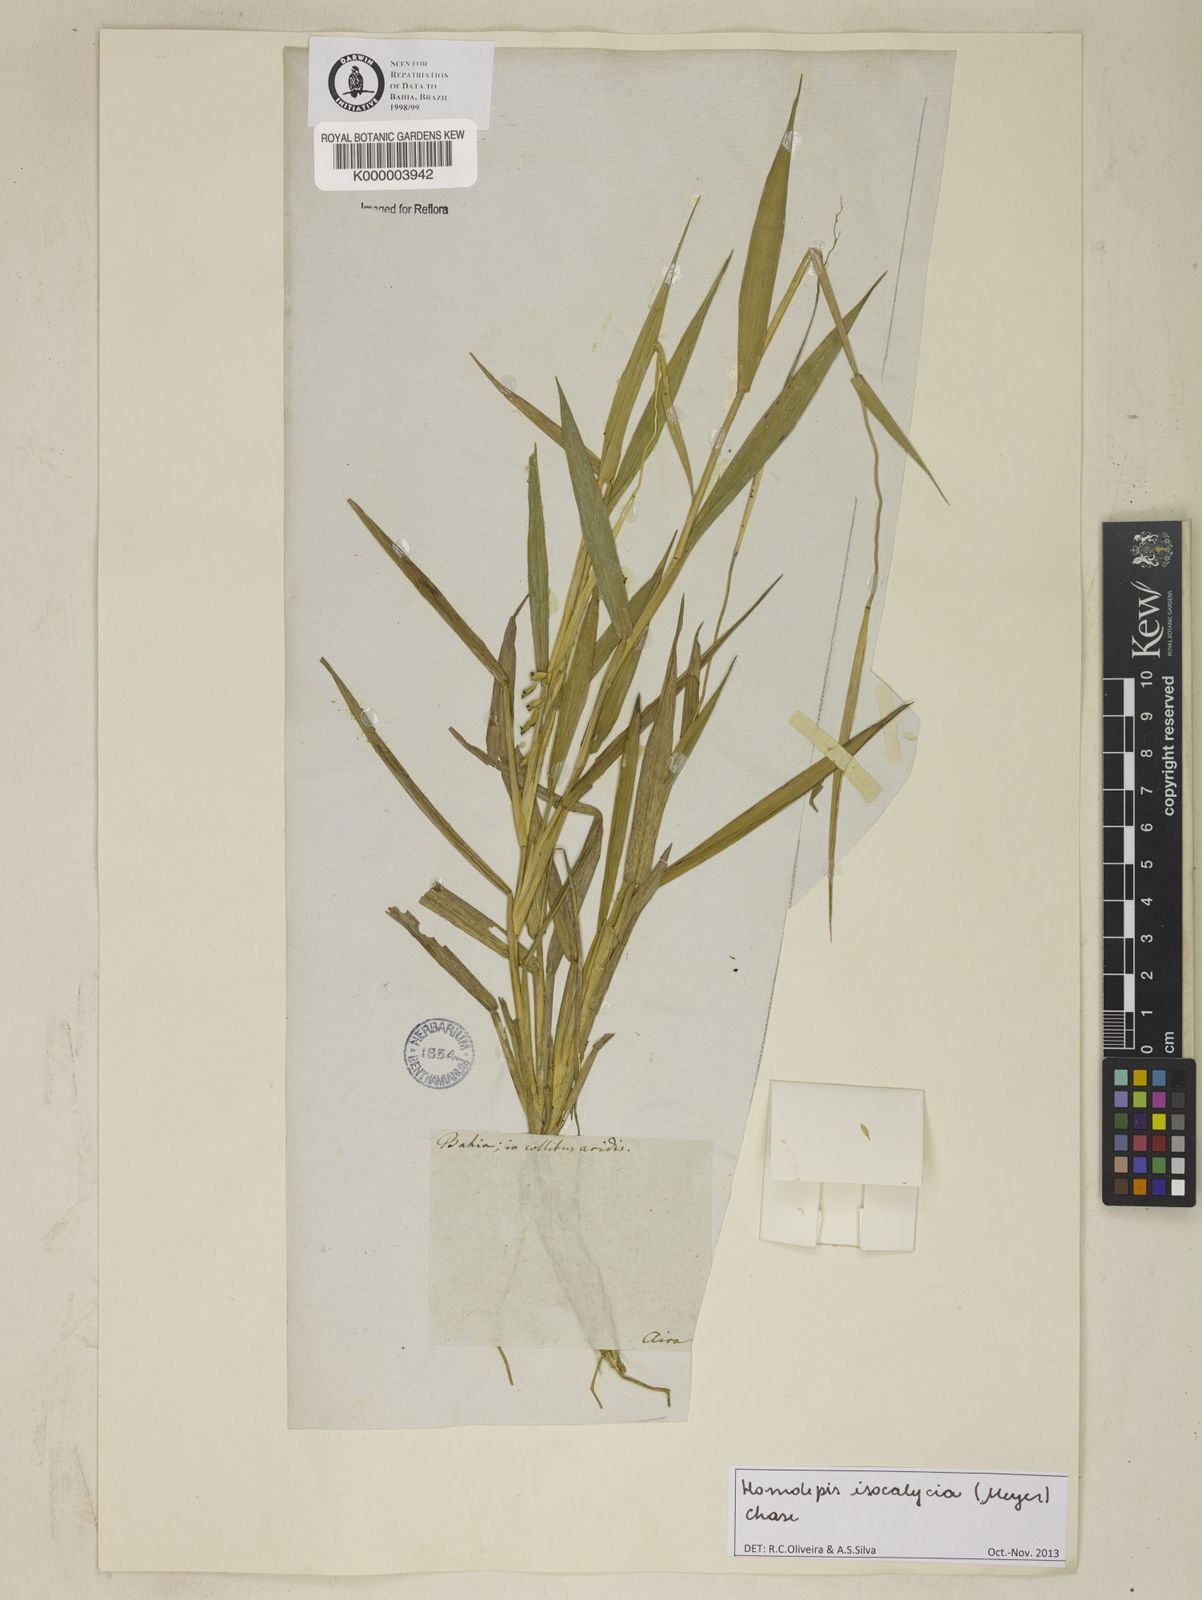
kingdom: Plantae
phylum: Tracheophyta
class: Liliopsida
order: Poales
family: Poaceae
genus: Homolepis
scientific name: Homolepis
